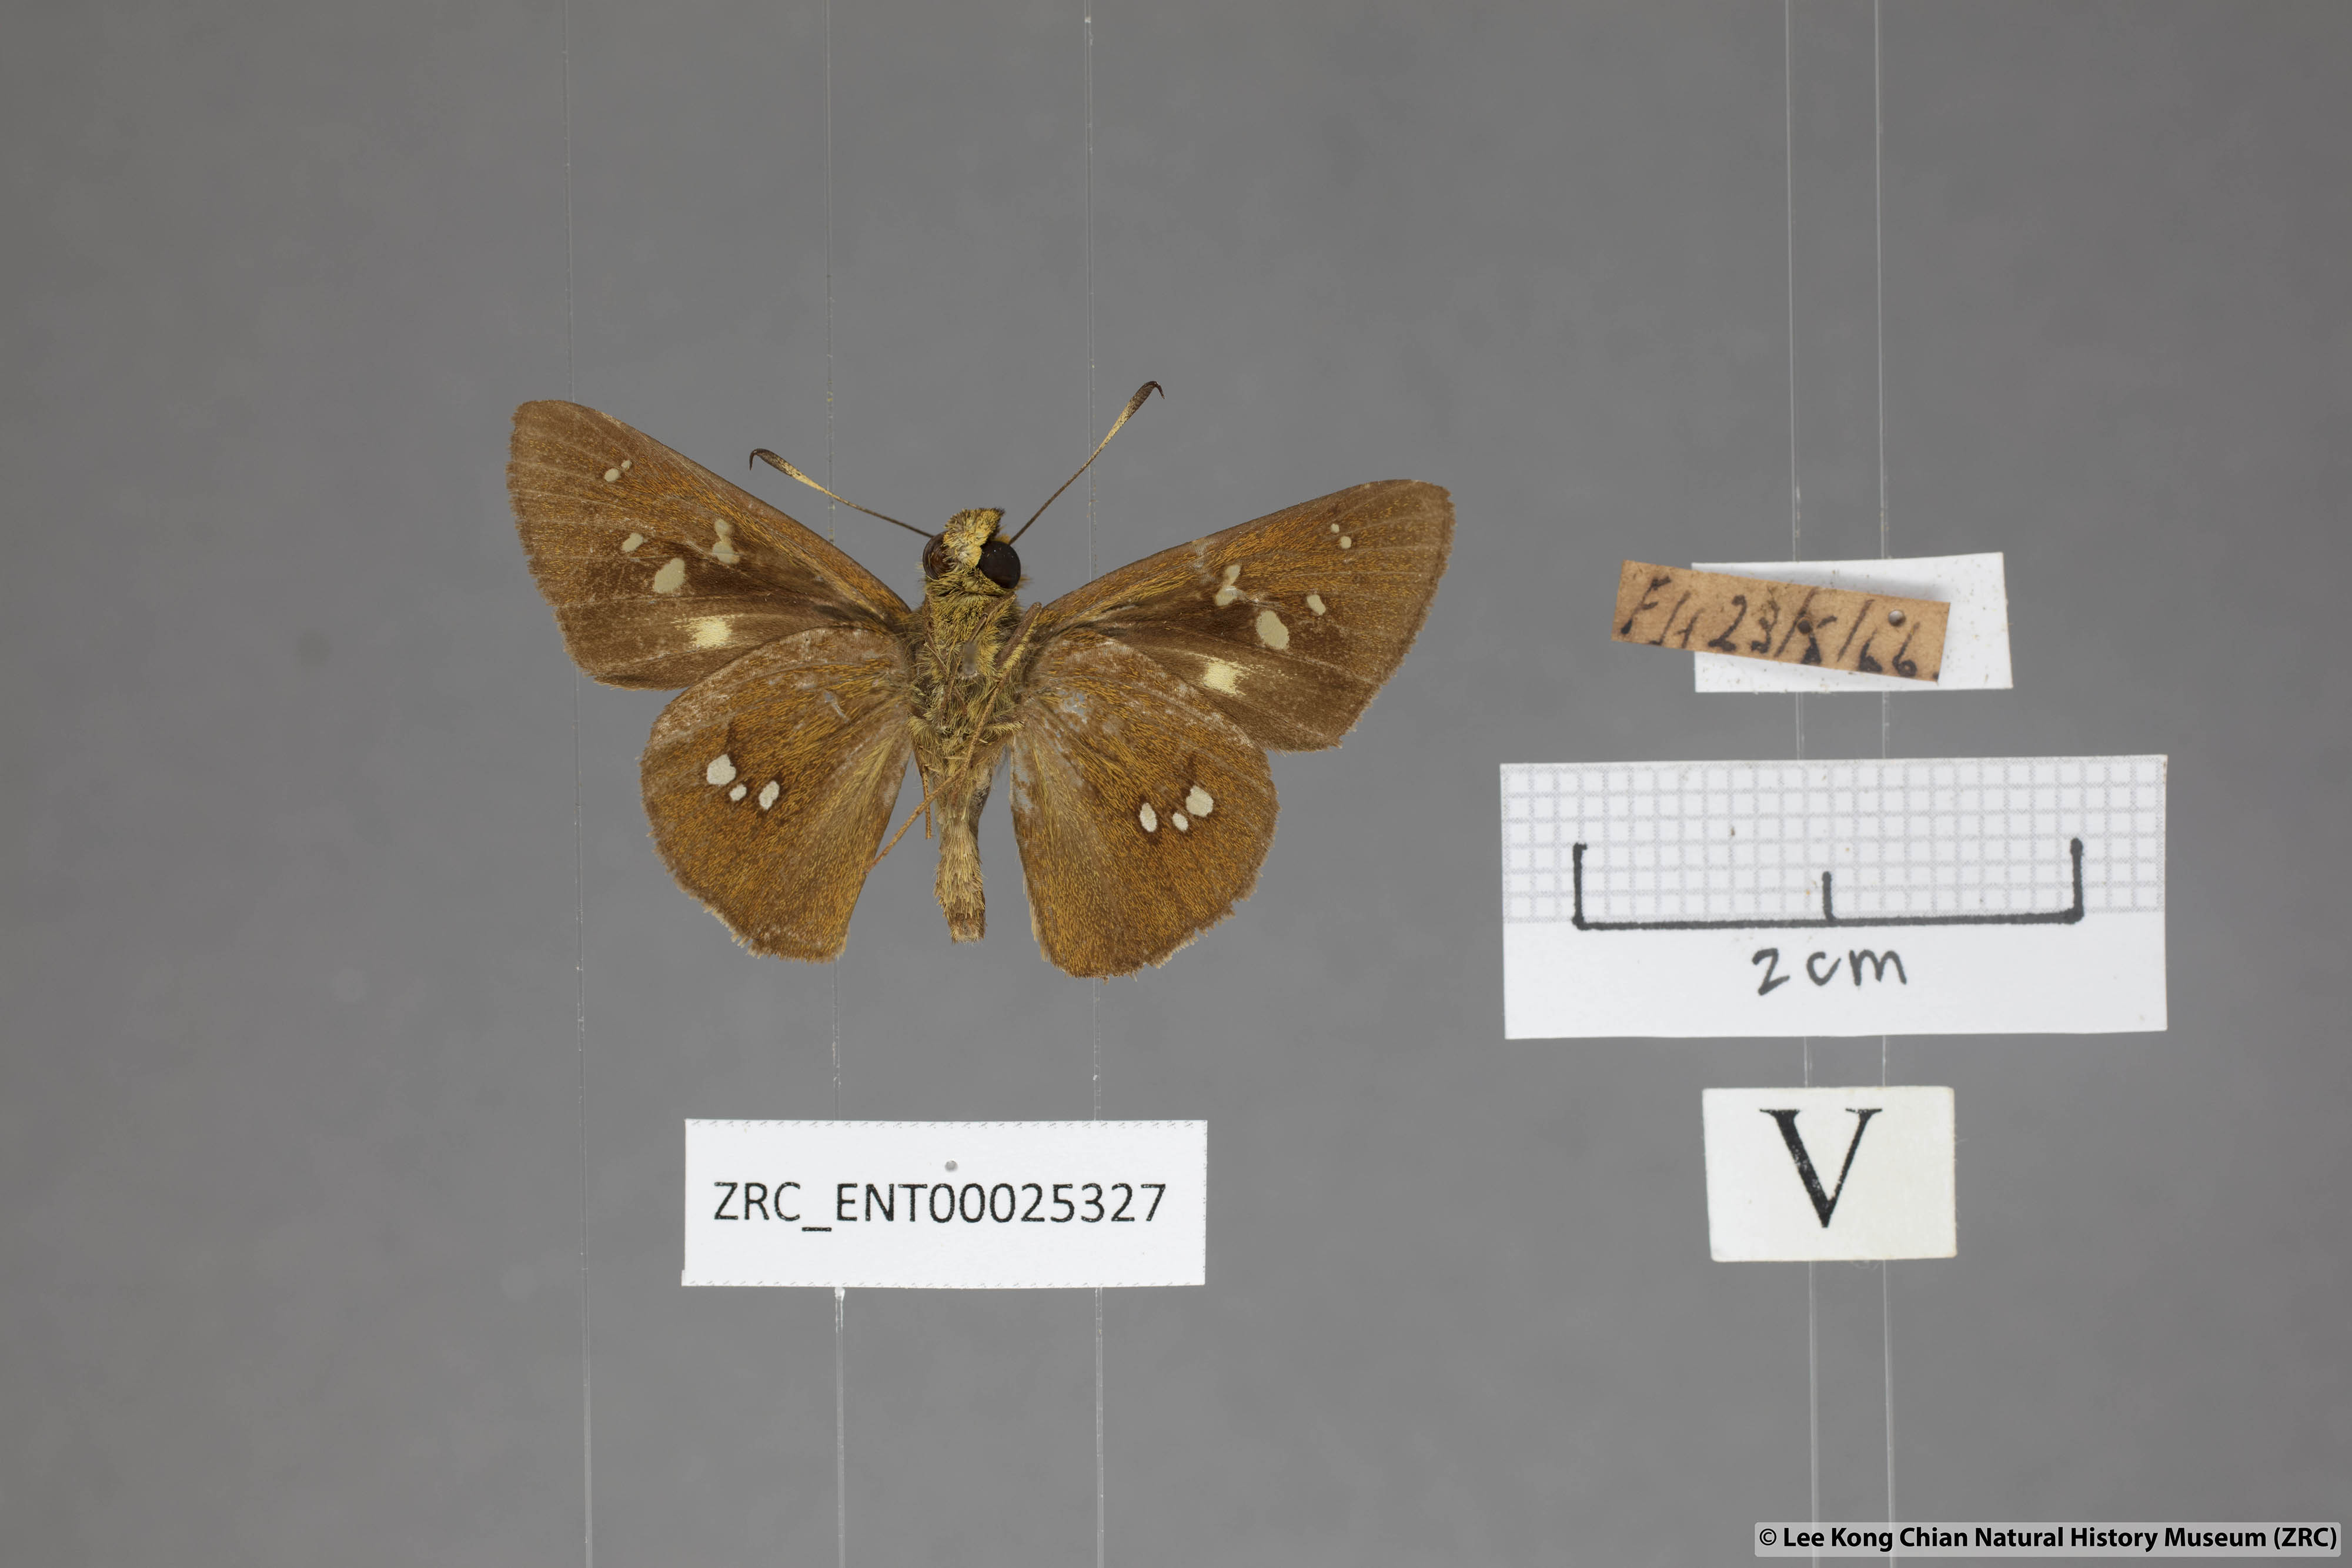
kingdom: Animalia
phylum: Arthropoda
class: Insecta
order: Lepidoptera
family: Hesperiidae
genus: Polytremis
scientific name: Polytremis eltola
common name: Yellow-spot swift
